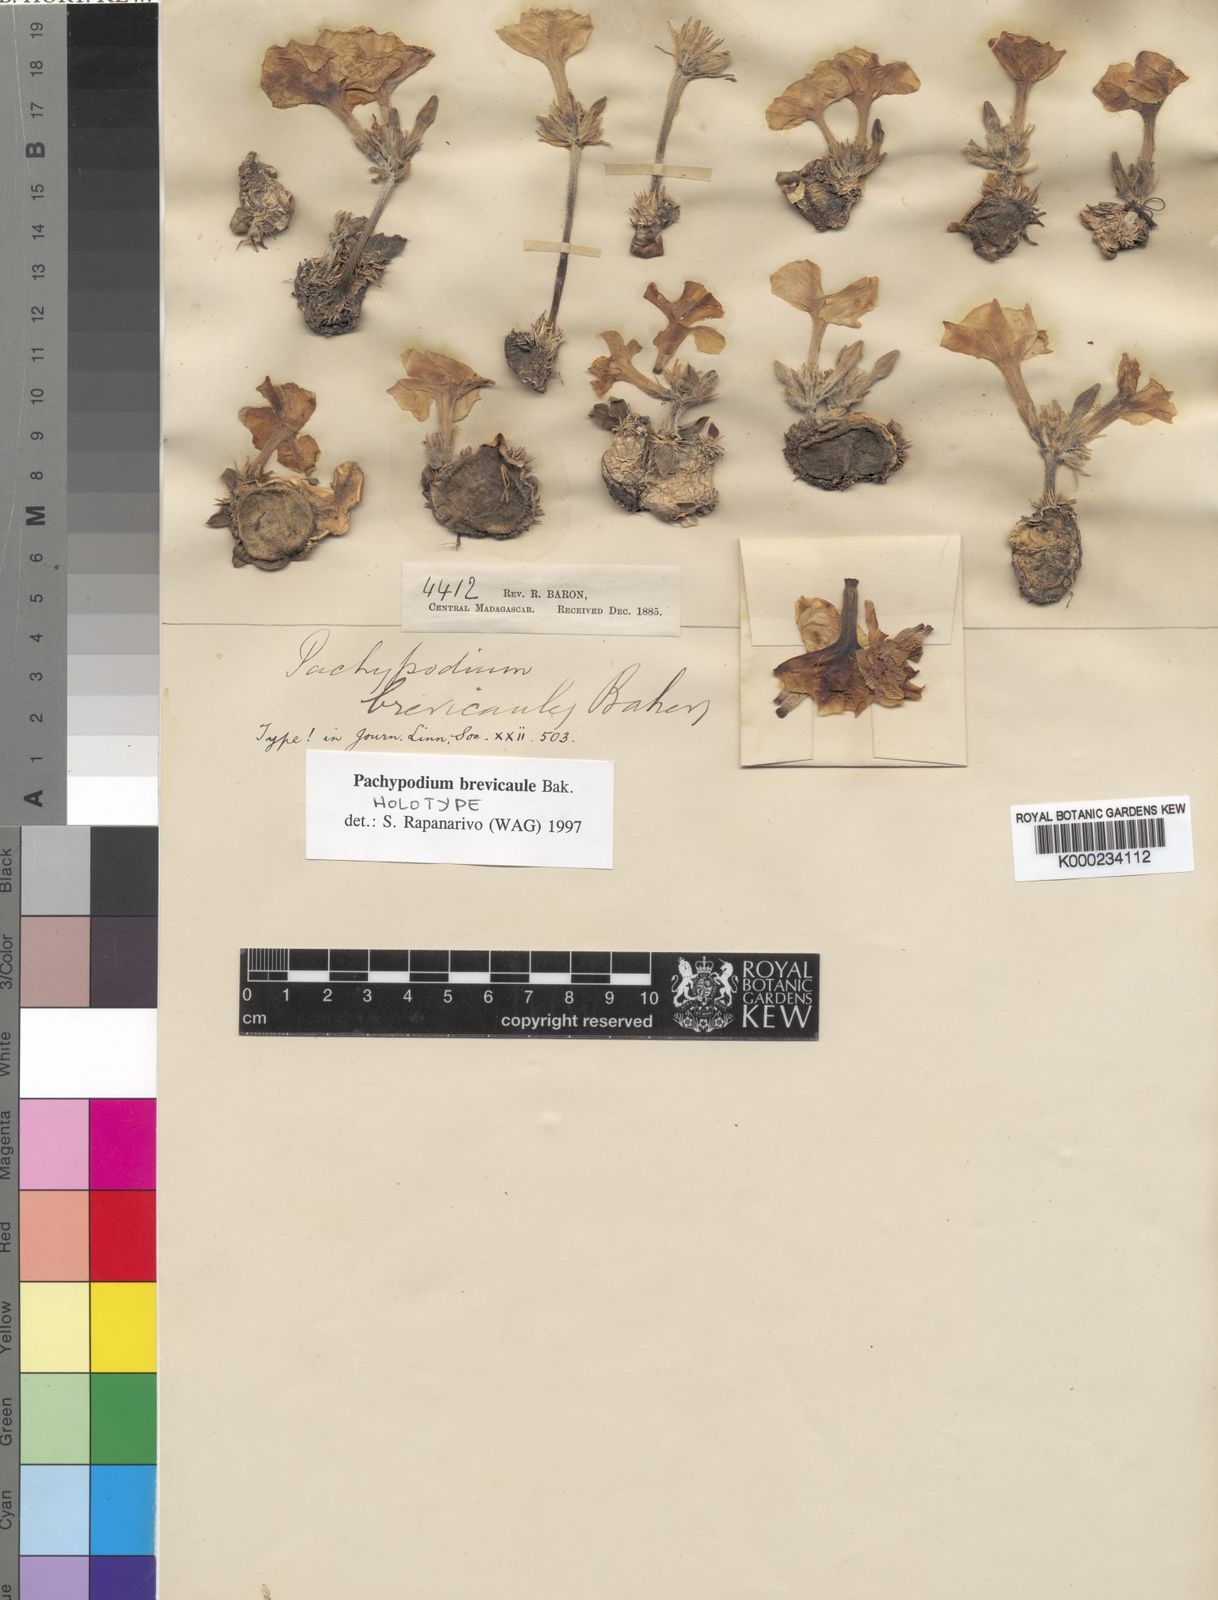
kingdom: Plantae
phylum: Tracheophyta
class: Magnoliopsida
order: Gentianales
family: Apocynaceae
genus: Pachypodium
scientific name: Pachypodium brevicaule
